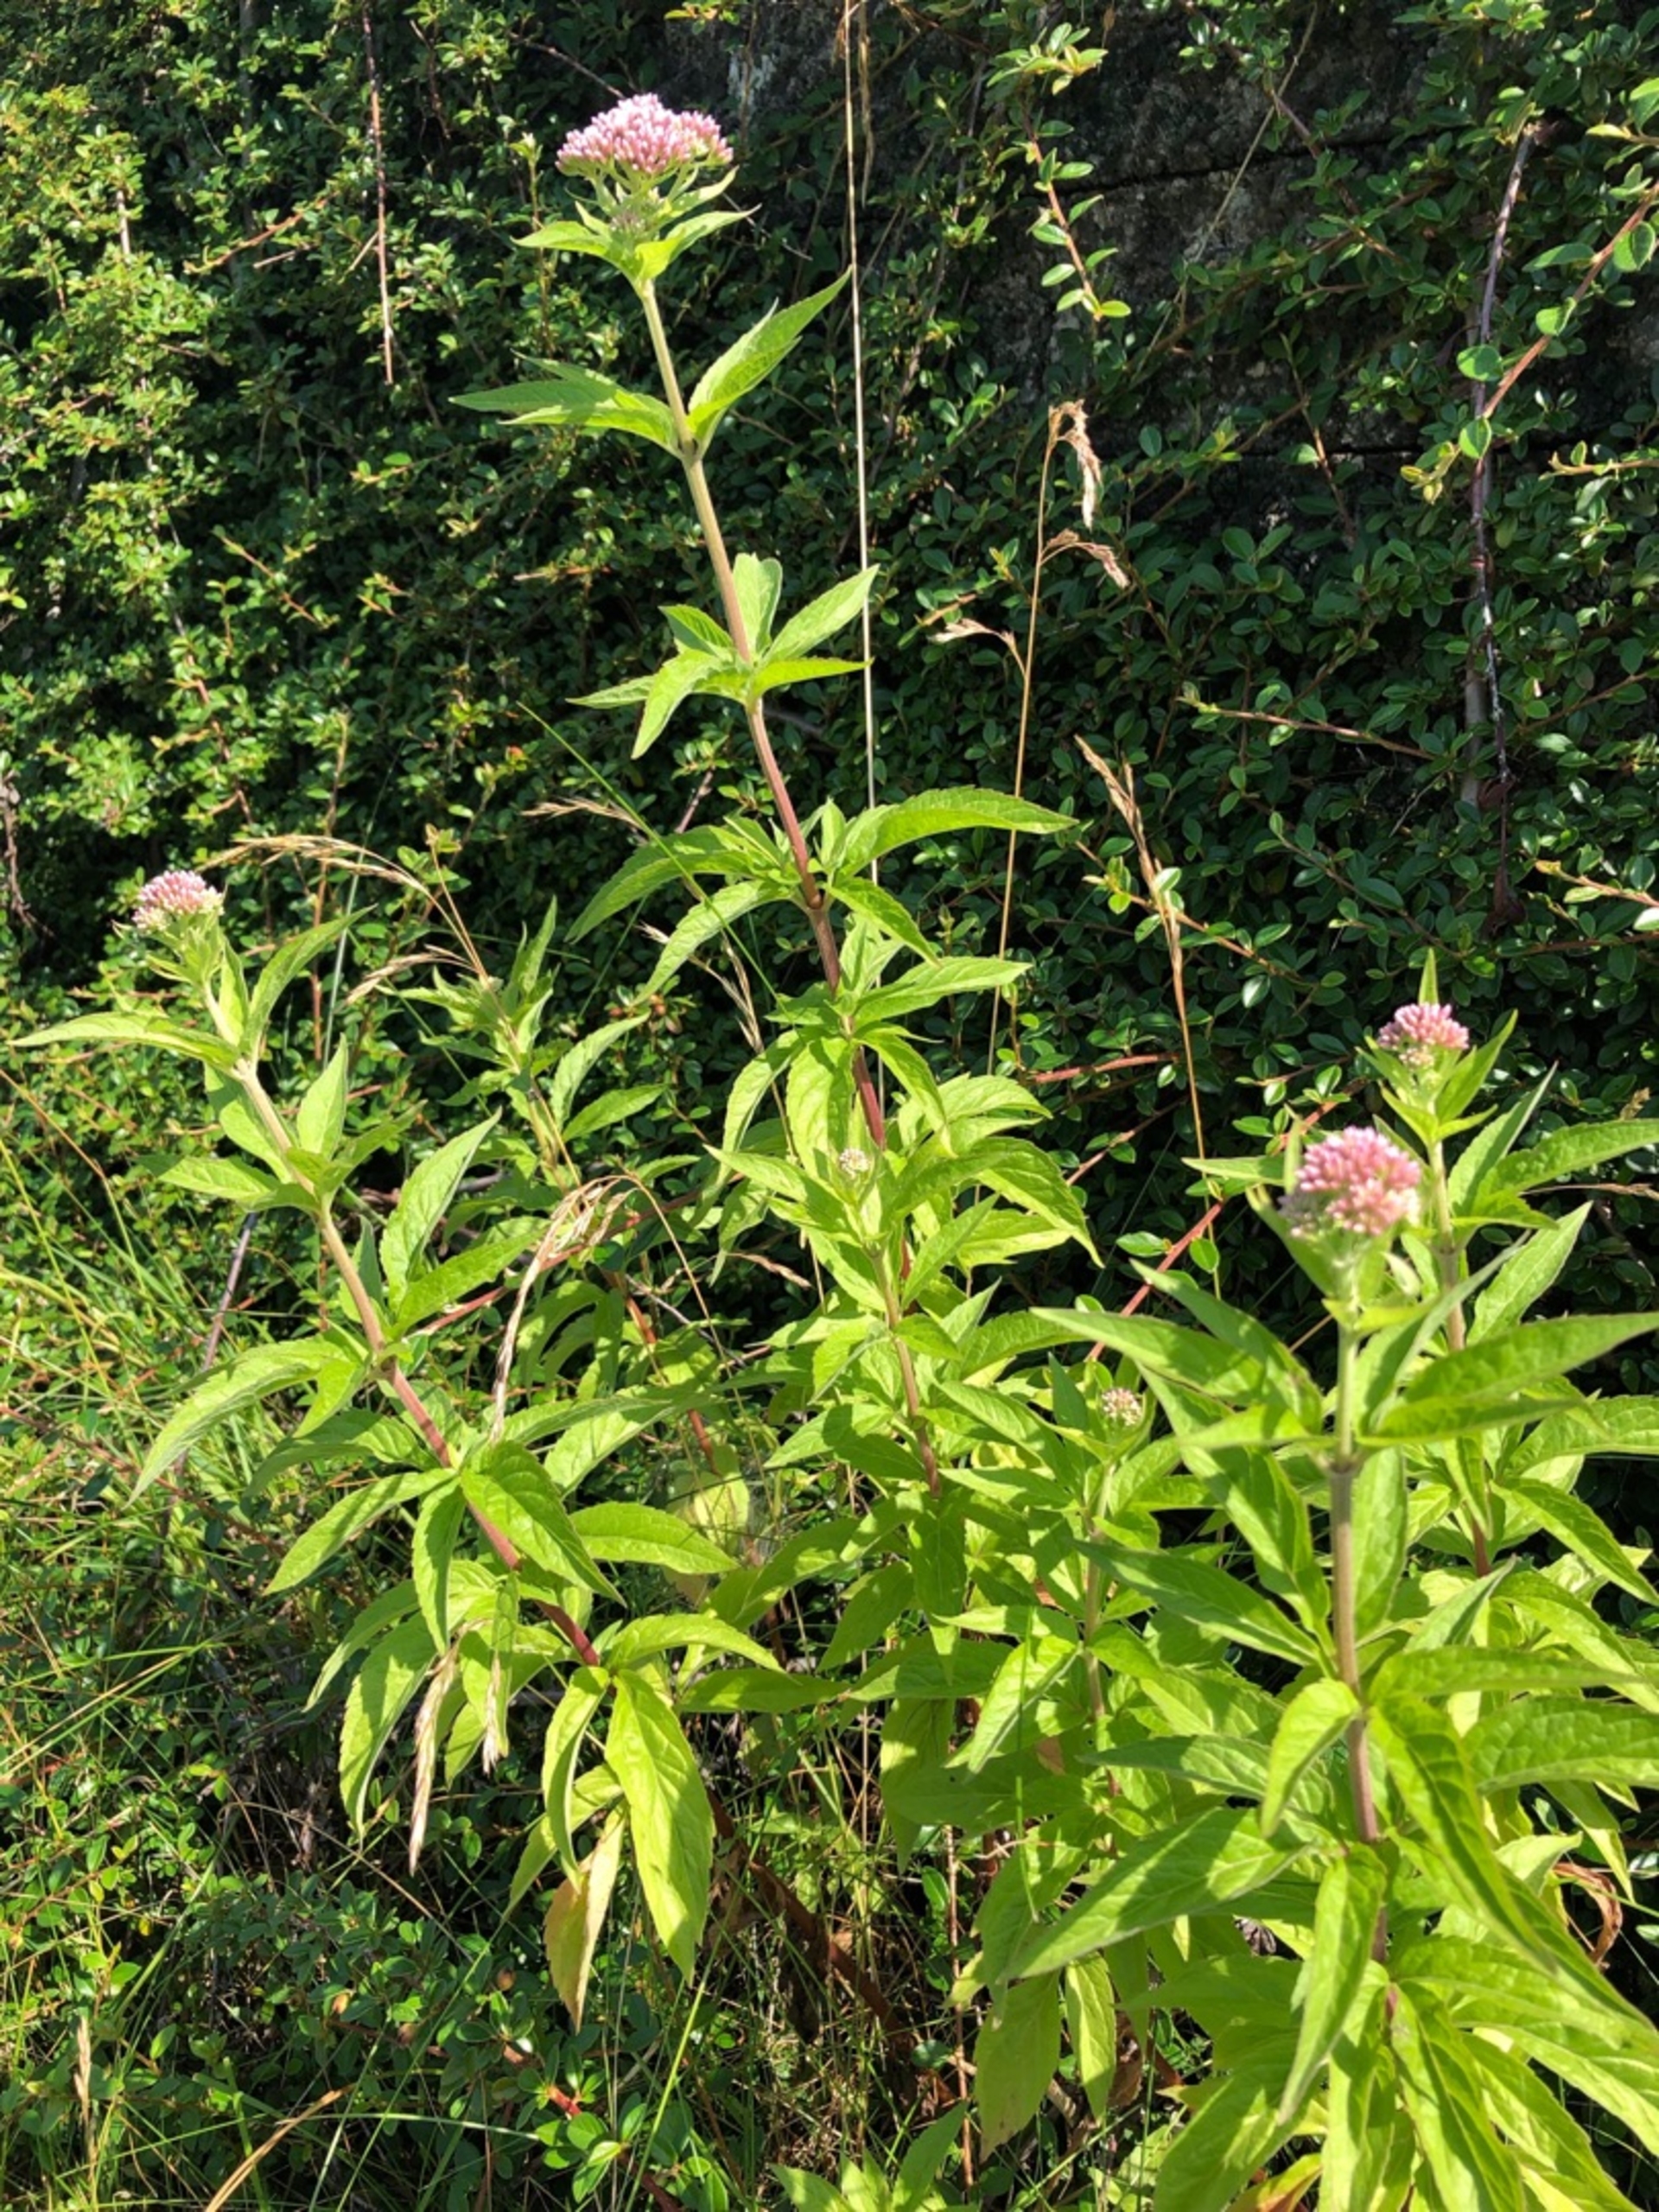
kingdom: Plantae
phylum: Tracheophyta
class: Magnoliopsida
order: Asterales
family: Asteraceae
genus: Eupatorium
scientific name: Eupatorium cannabinum
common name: Hjortetrøst
